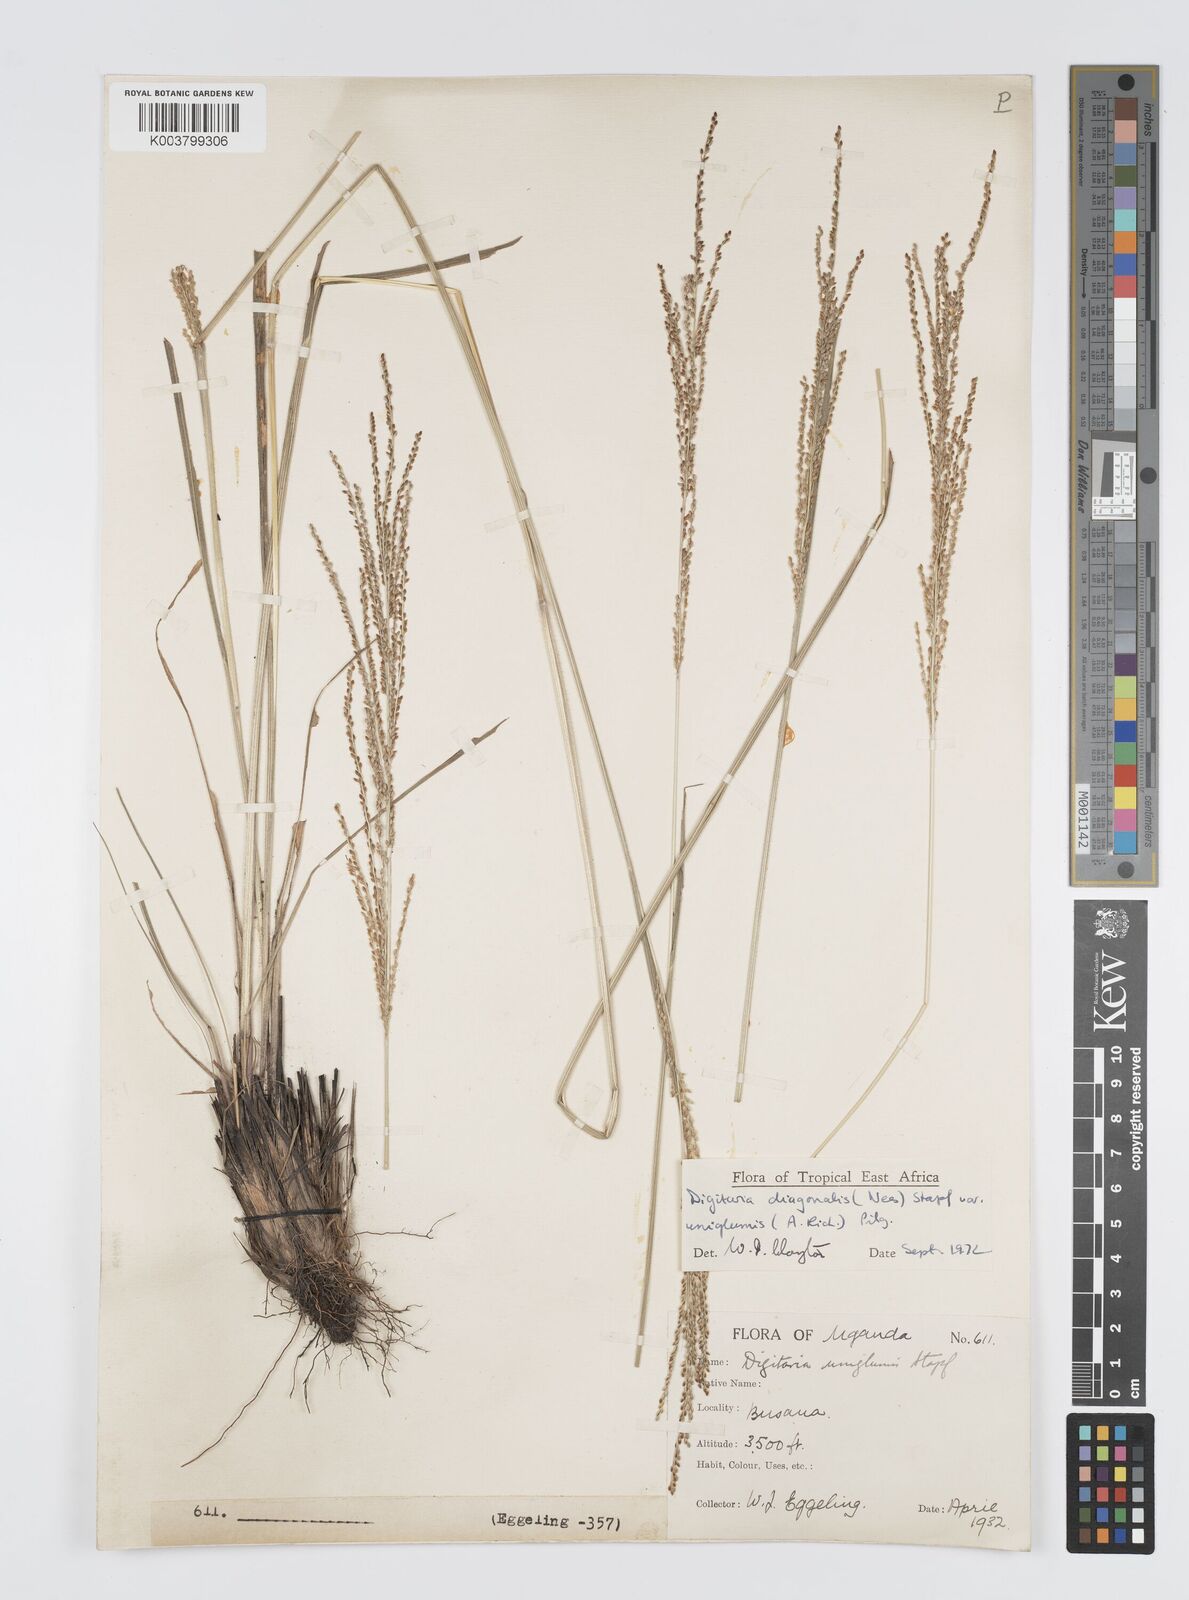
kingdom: Plantae
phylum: Tracheophyta
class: Liliopsida
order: Poales
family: Poaceae
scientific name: Poaceae
